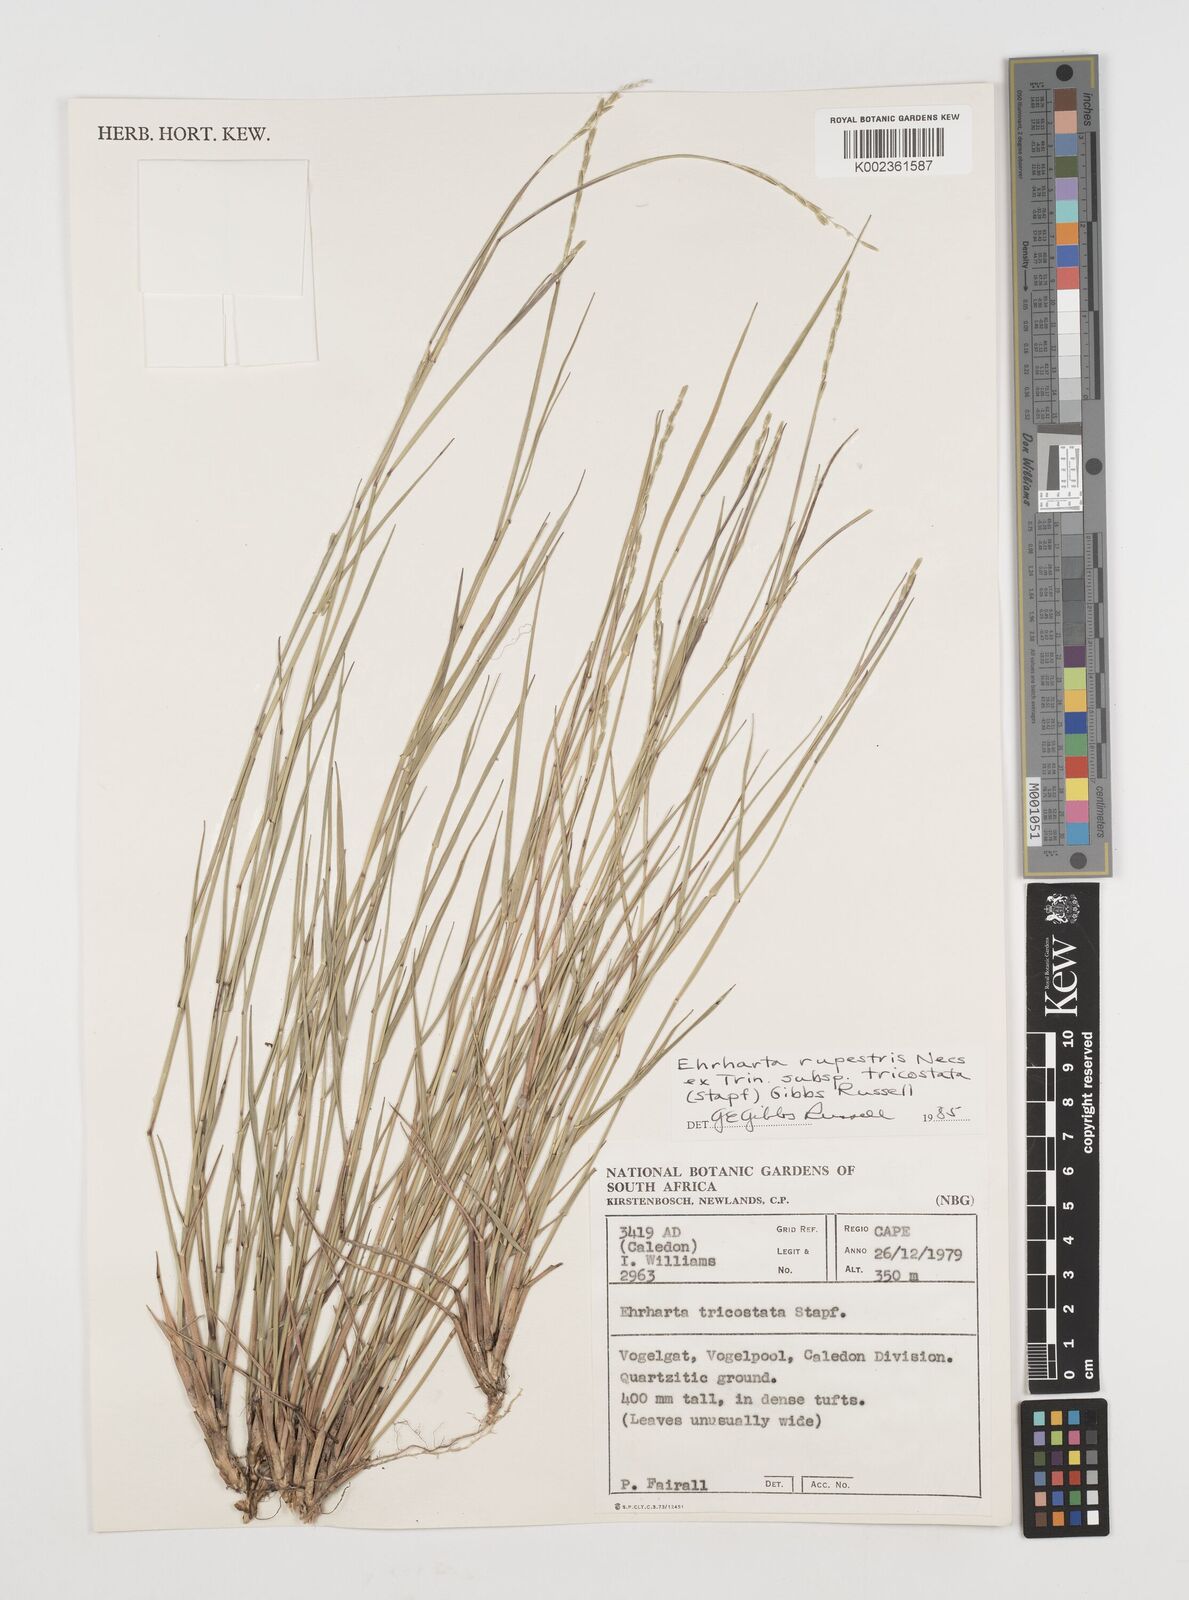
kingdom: Plantae
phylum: Tracheophyta
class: Liliopsida
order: Poales
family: Poaceae
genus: Ehrharta
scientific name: Ehrharta rupestris
